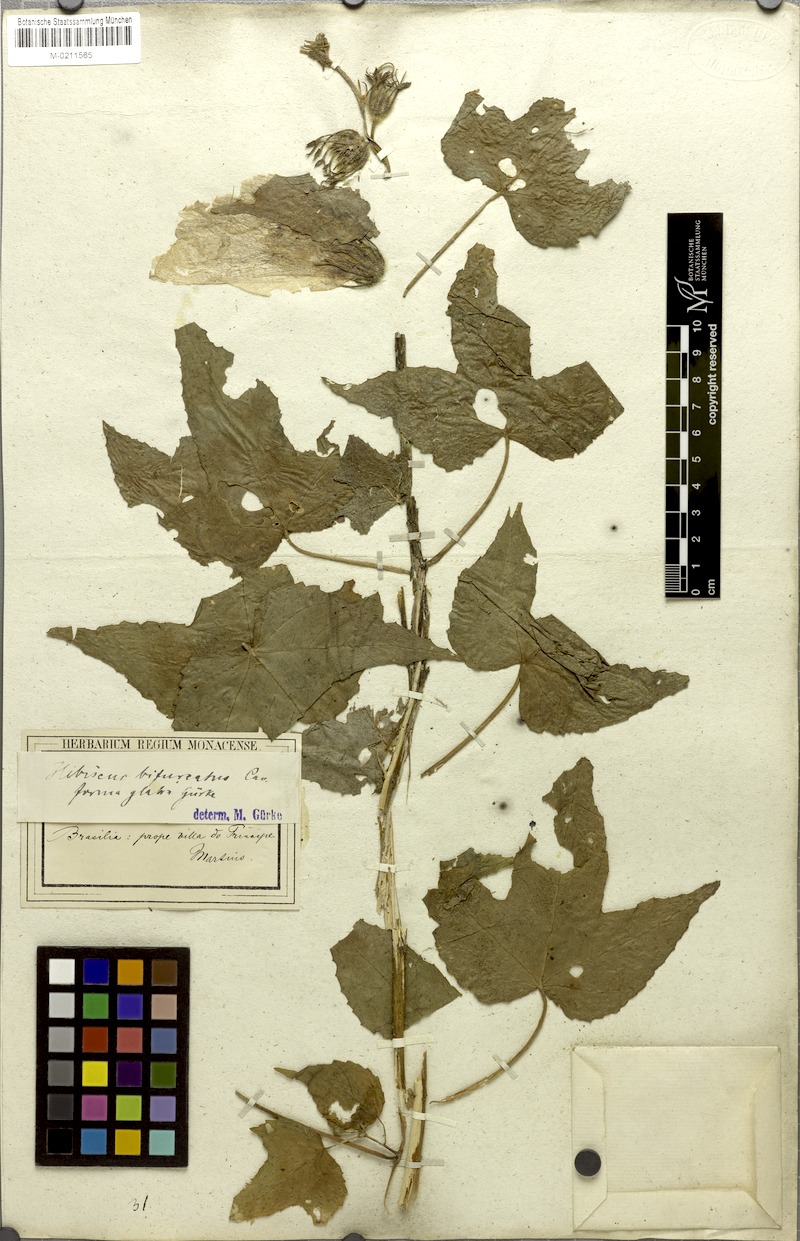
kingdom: Plantae
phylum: Tracheophyta
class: Magnoliopsida
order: Malvales
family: Malvaceae
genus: Hibiscus
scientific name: Hibiscus bifurcatus
